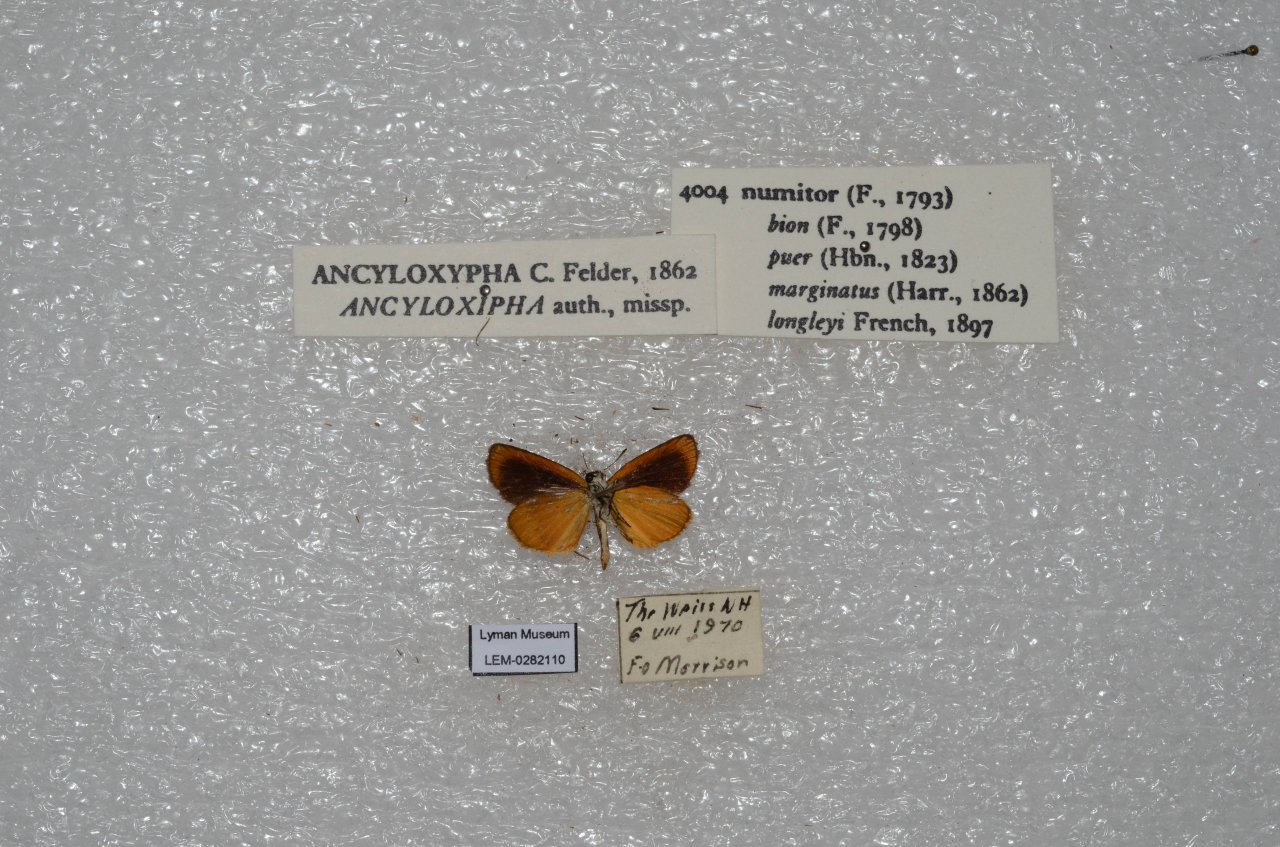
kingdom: Animalia
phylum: Arthropoda
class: Insecta
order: Lepidoptera
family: Hesperiidae
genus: Ancyloxypha
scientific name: Ancyloxypha numitor
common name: Least Skipper
